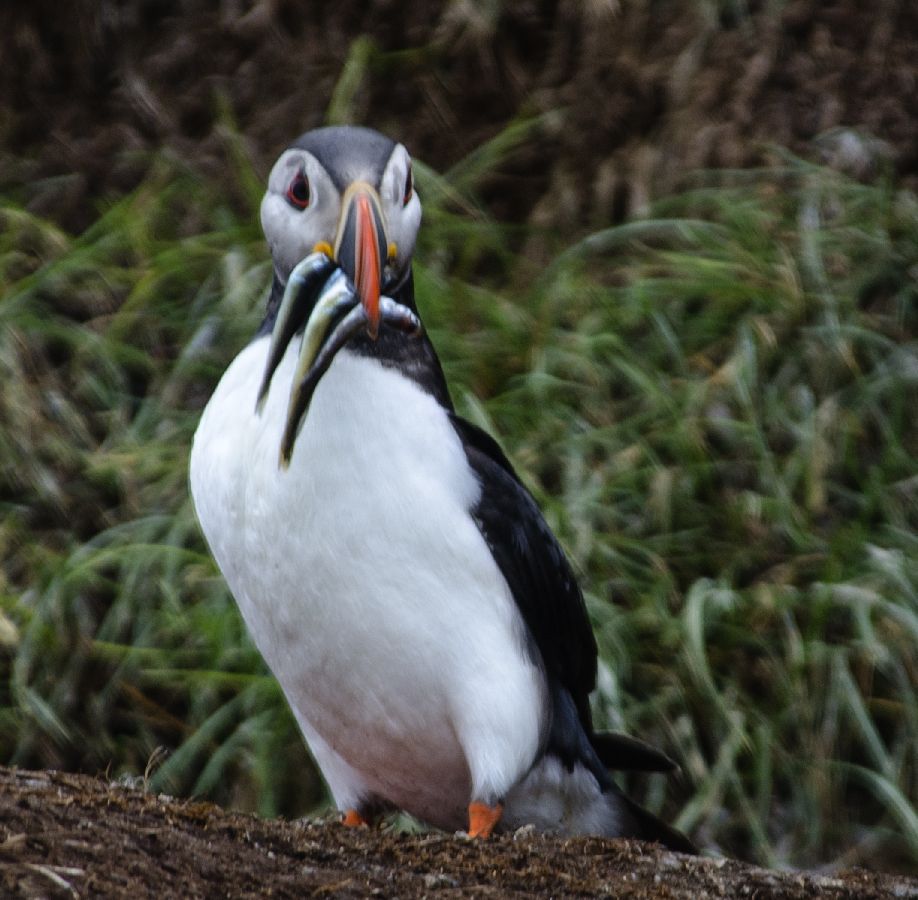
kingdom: Animalia
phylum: Chordata
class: Aves
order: Charadriiformes
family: Alcidae
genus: Fratercula
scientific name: Fratercula arctica
